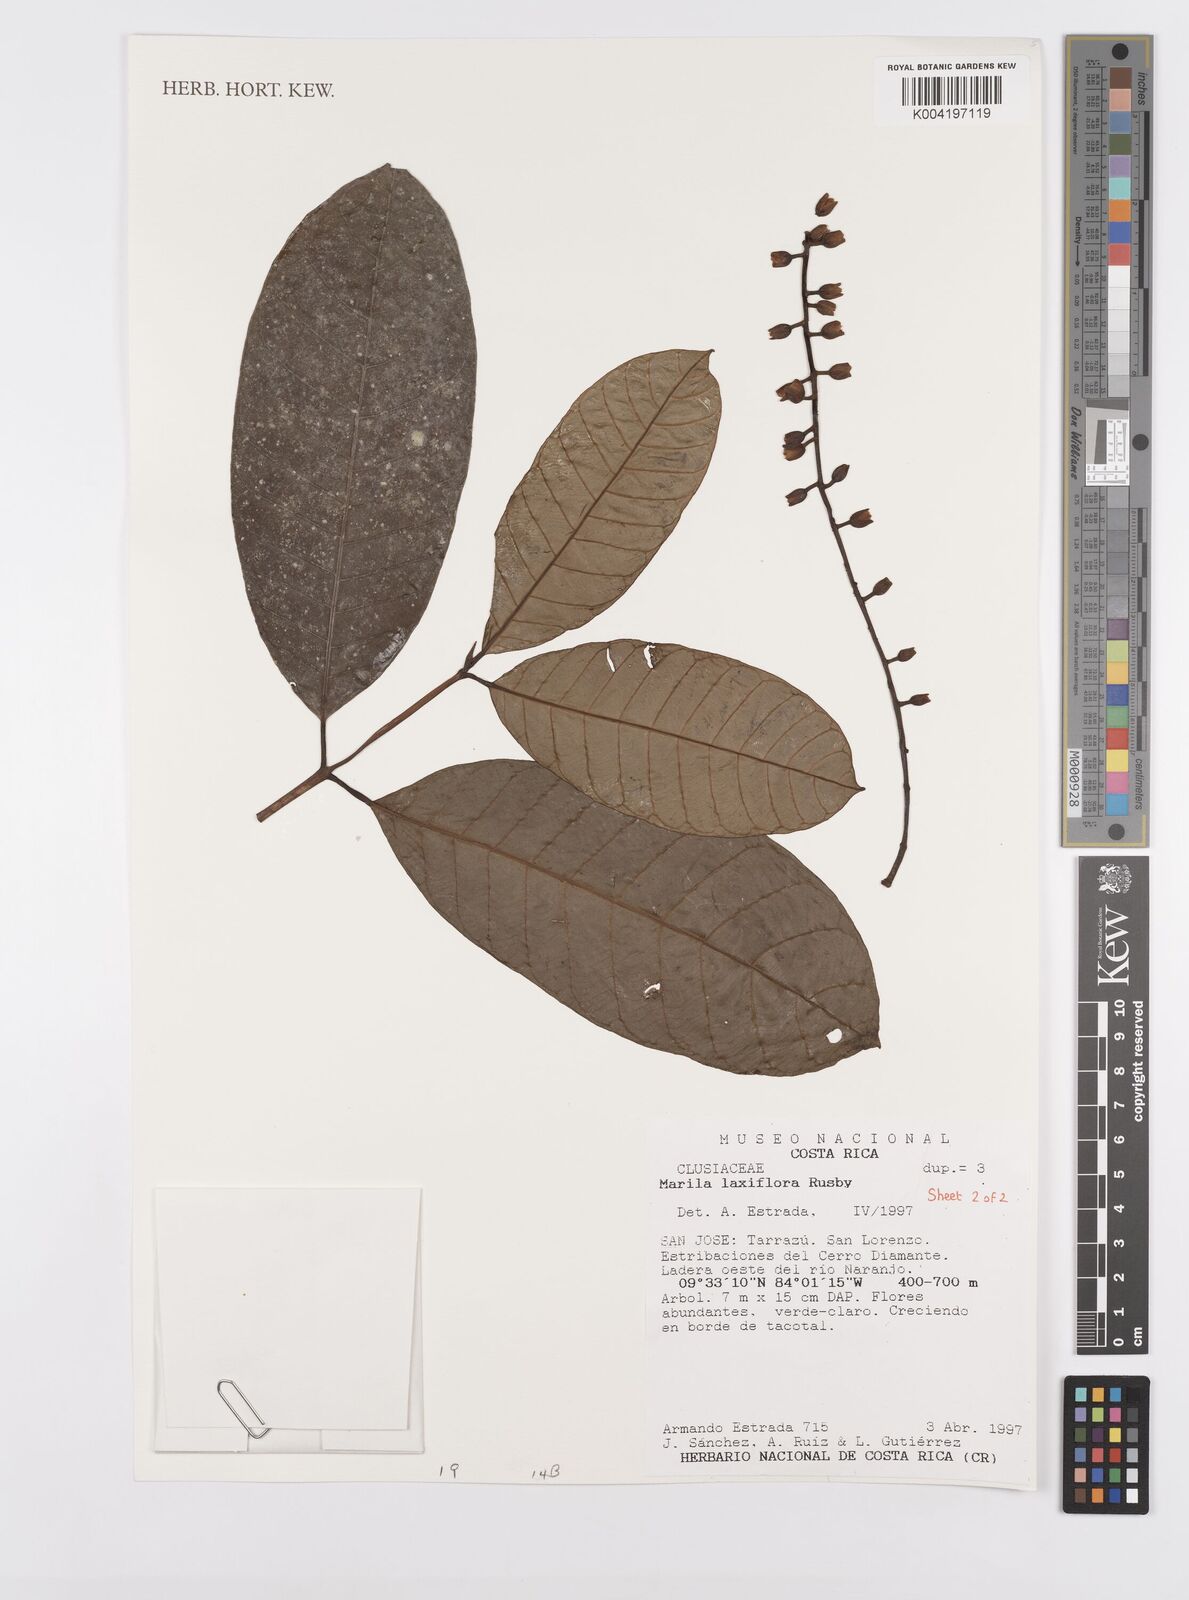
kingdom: Plantae
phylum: Tracheophyta
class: Magnoliopsida
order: Malpighiales
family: Calophyllaceae
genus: Marila
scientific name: Marila laxiflora
